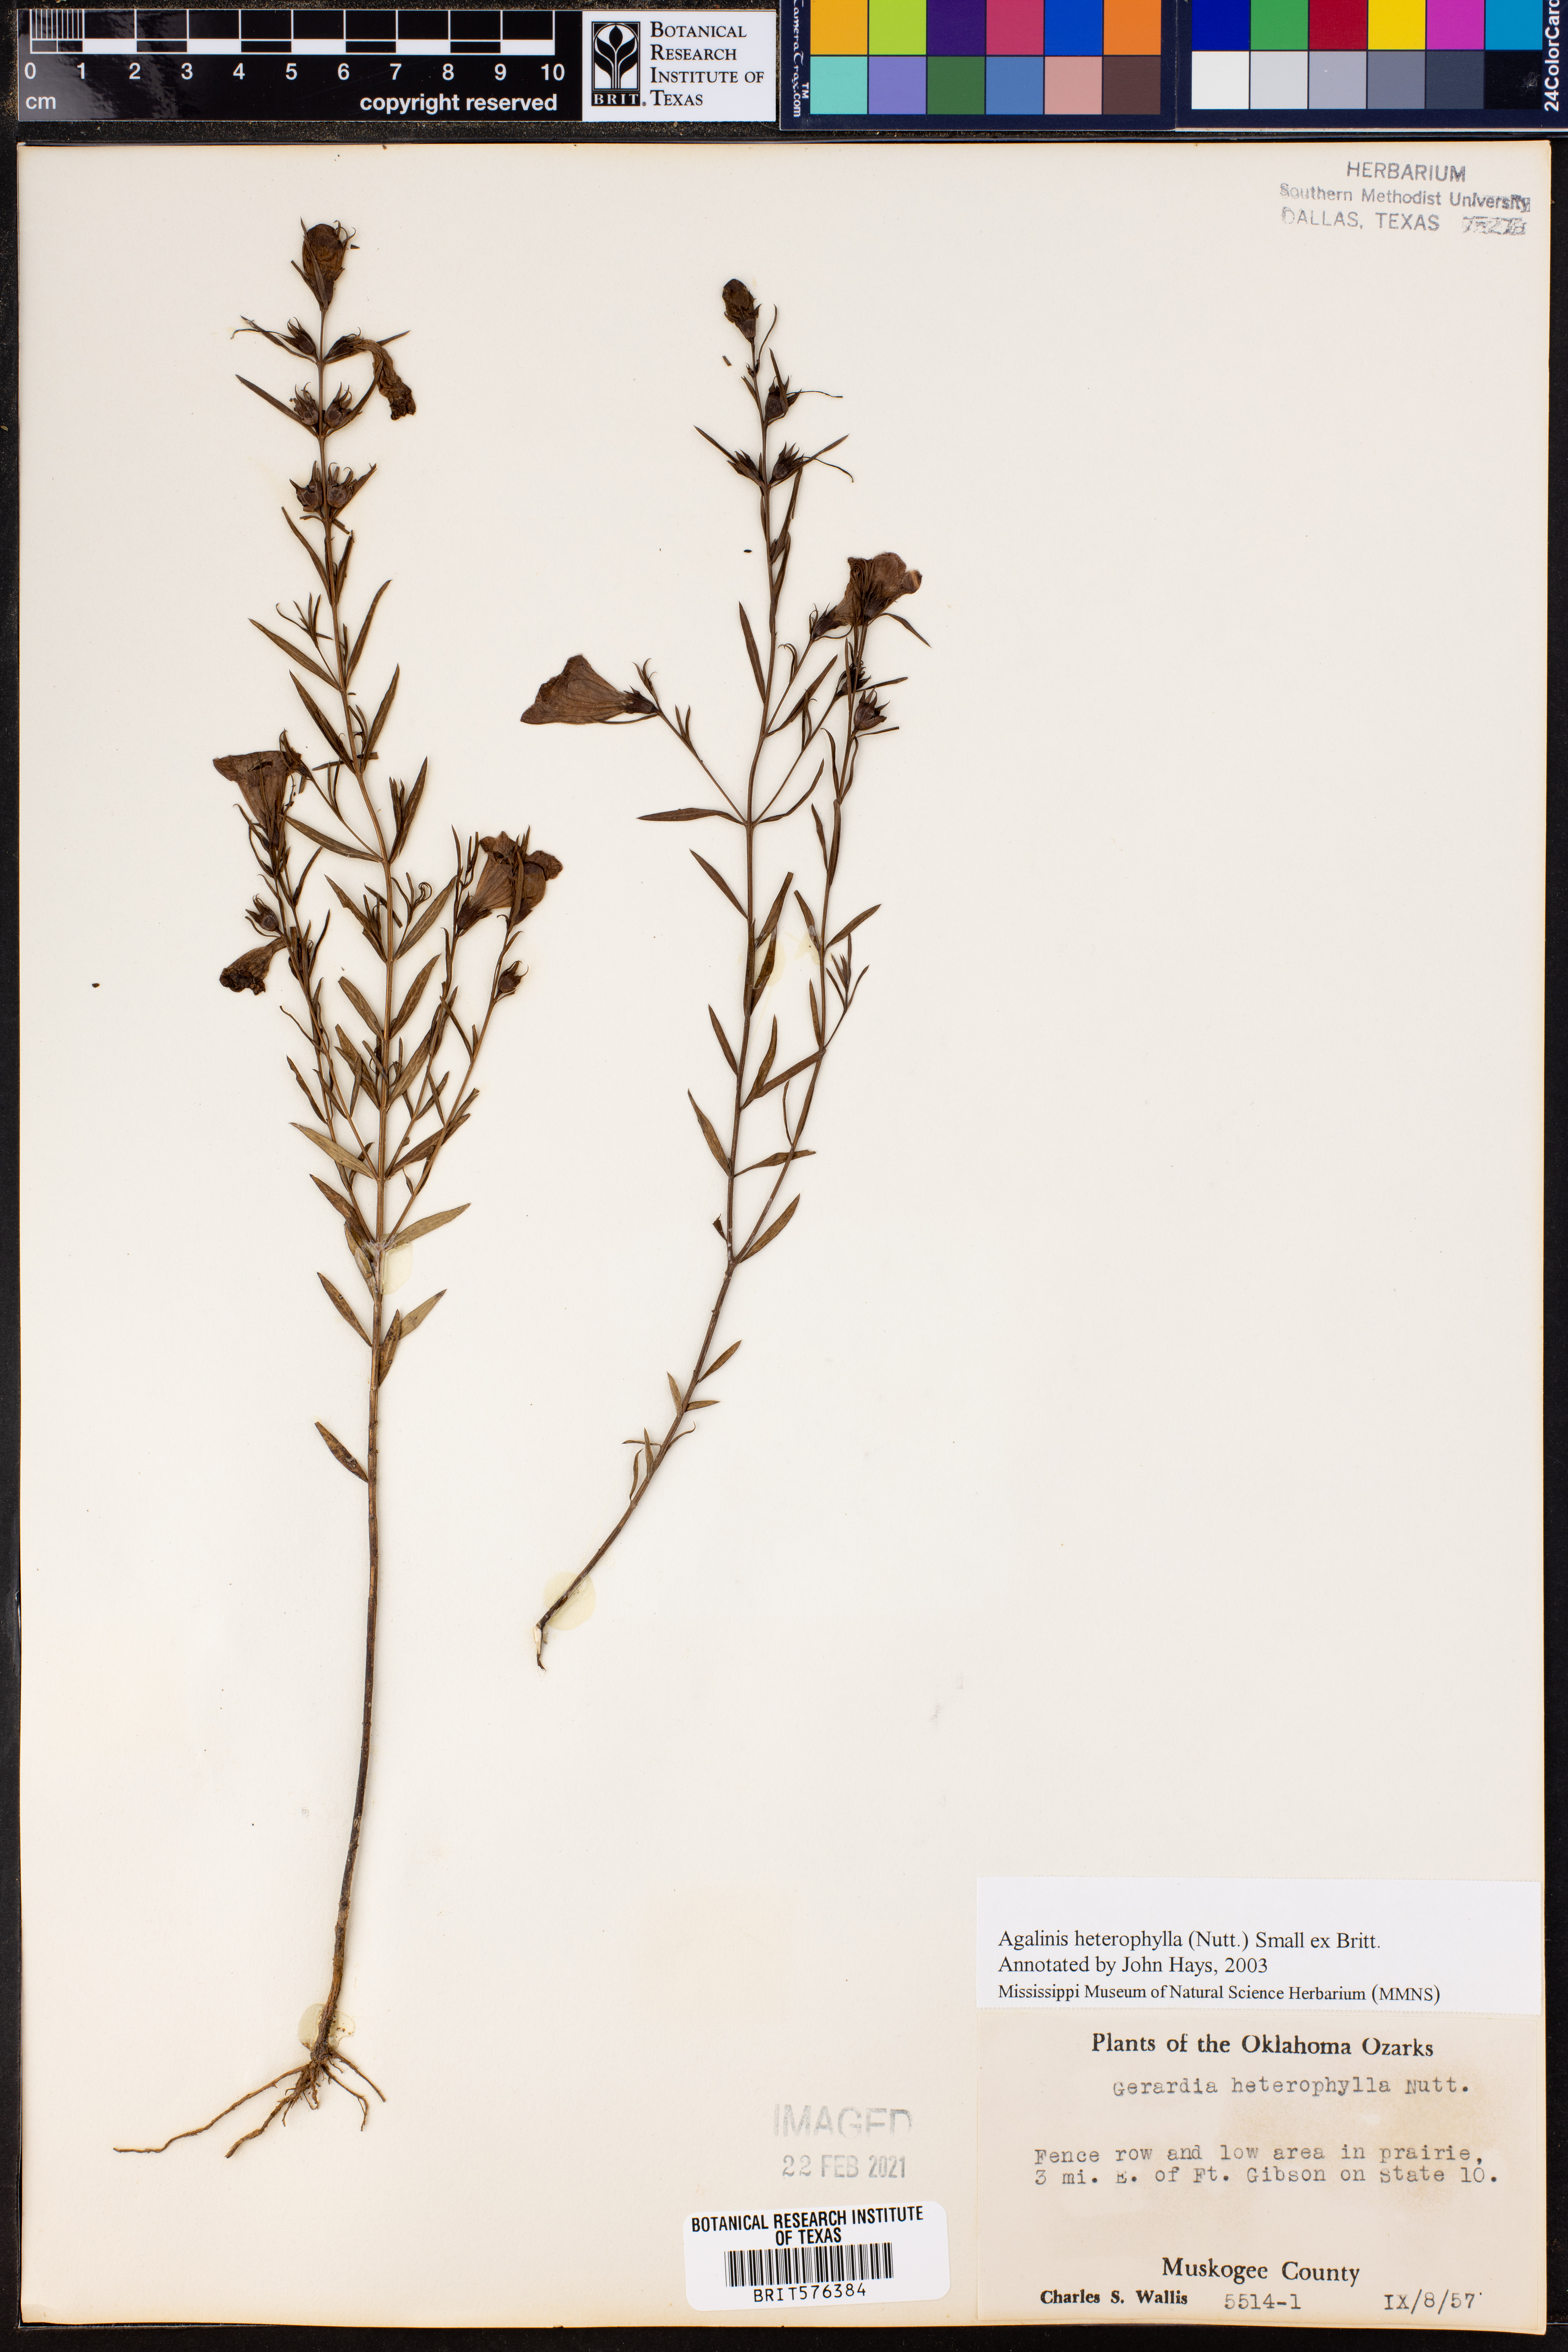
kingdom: Plantae
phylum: Tracheophyta
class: Magnoliopsida
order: Lamiales
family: Orobanchaceae
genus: Agalinis
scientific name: Agalinis heterophylla
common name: Prairie agalinis
